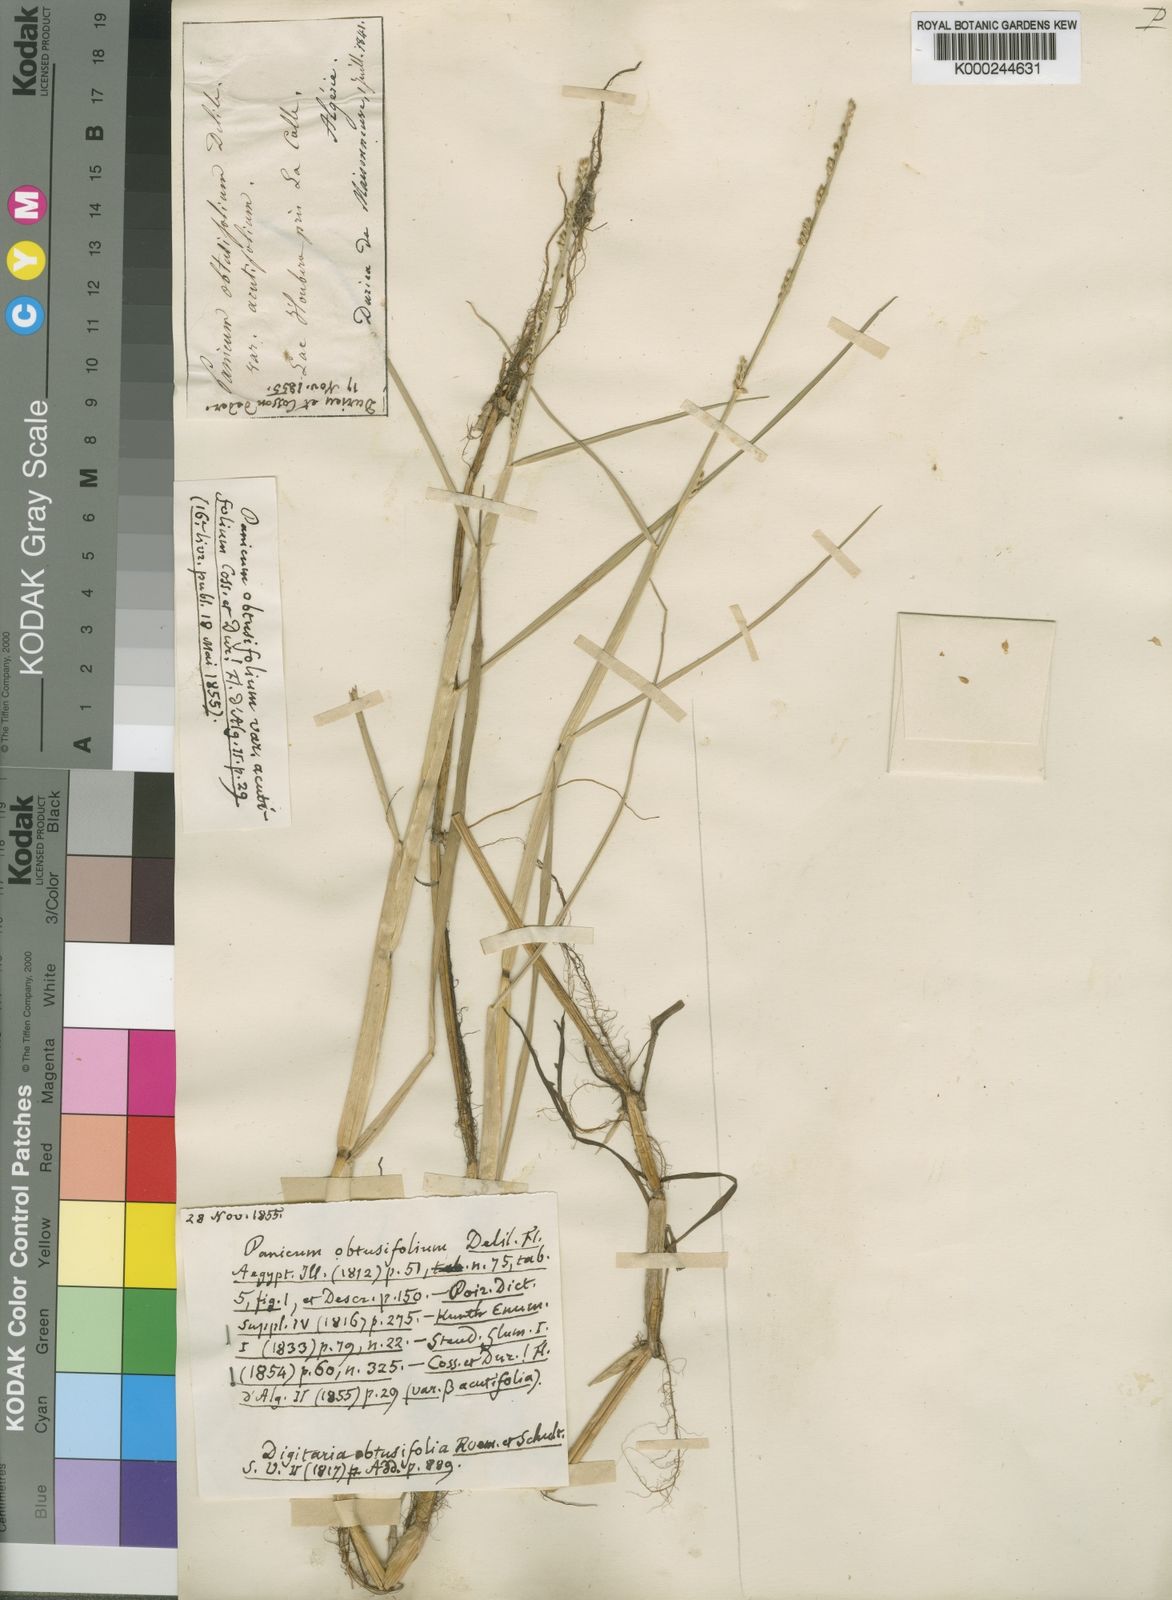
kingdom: Plantae
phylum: Tracheophyta
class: Liliopsida
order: Poales
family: Poaceae
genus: Setaria
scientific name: Setaria obtusifolia
